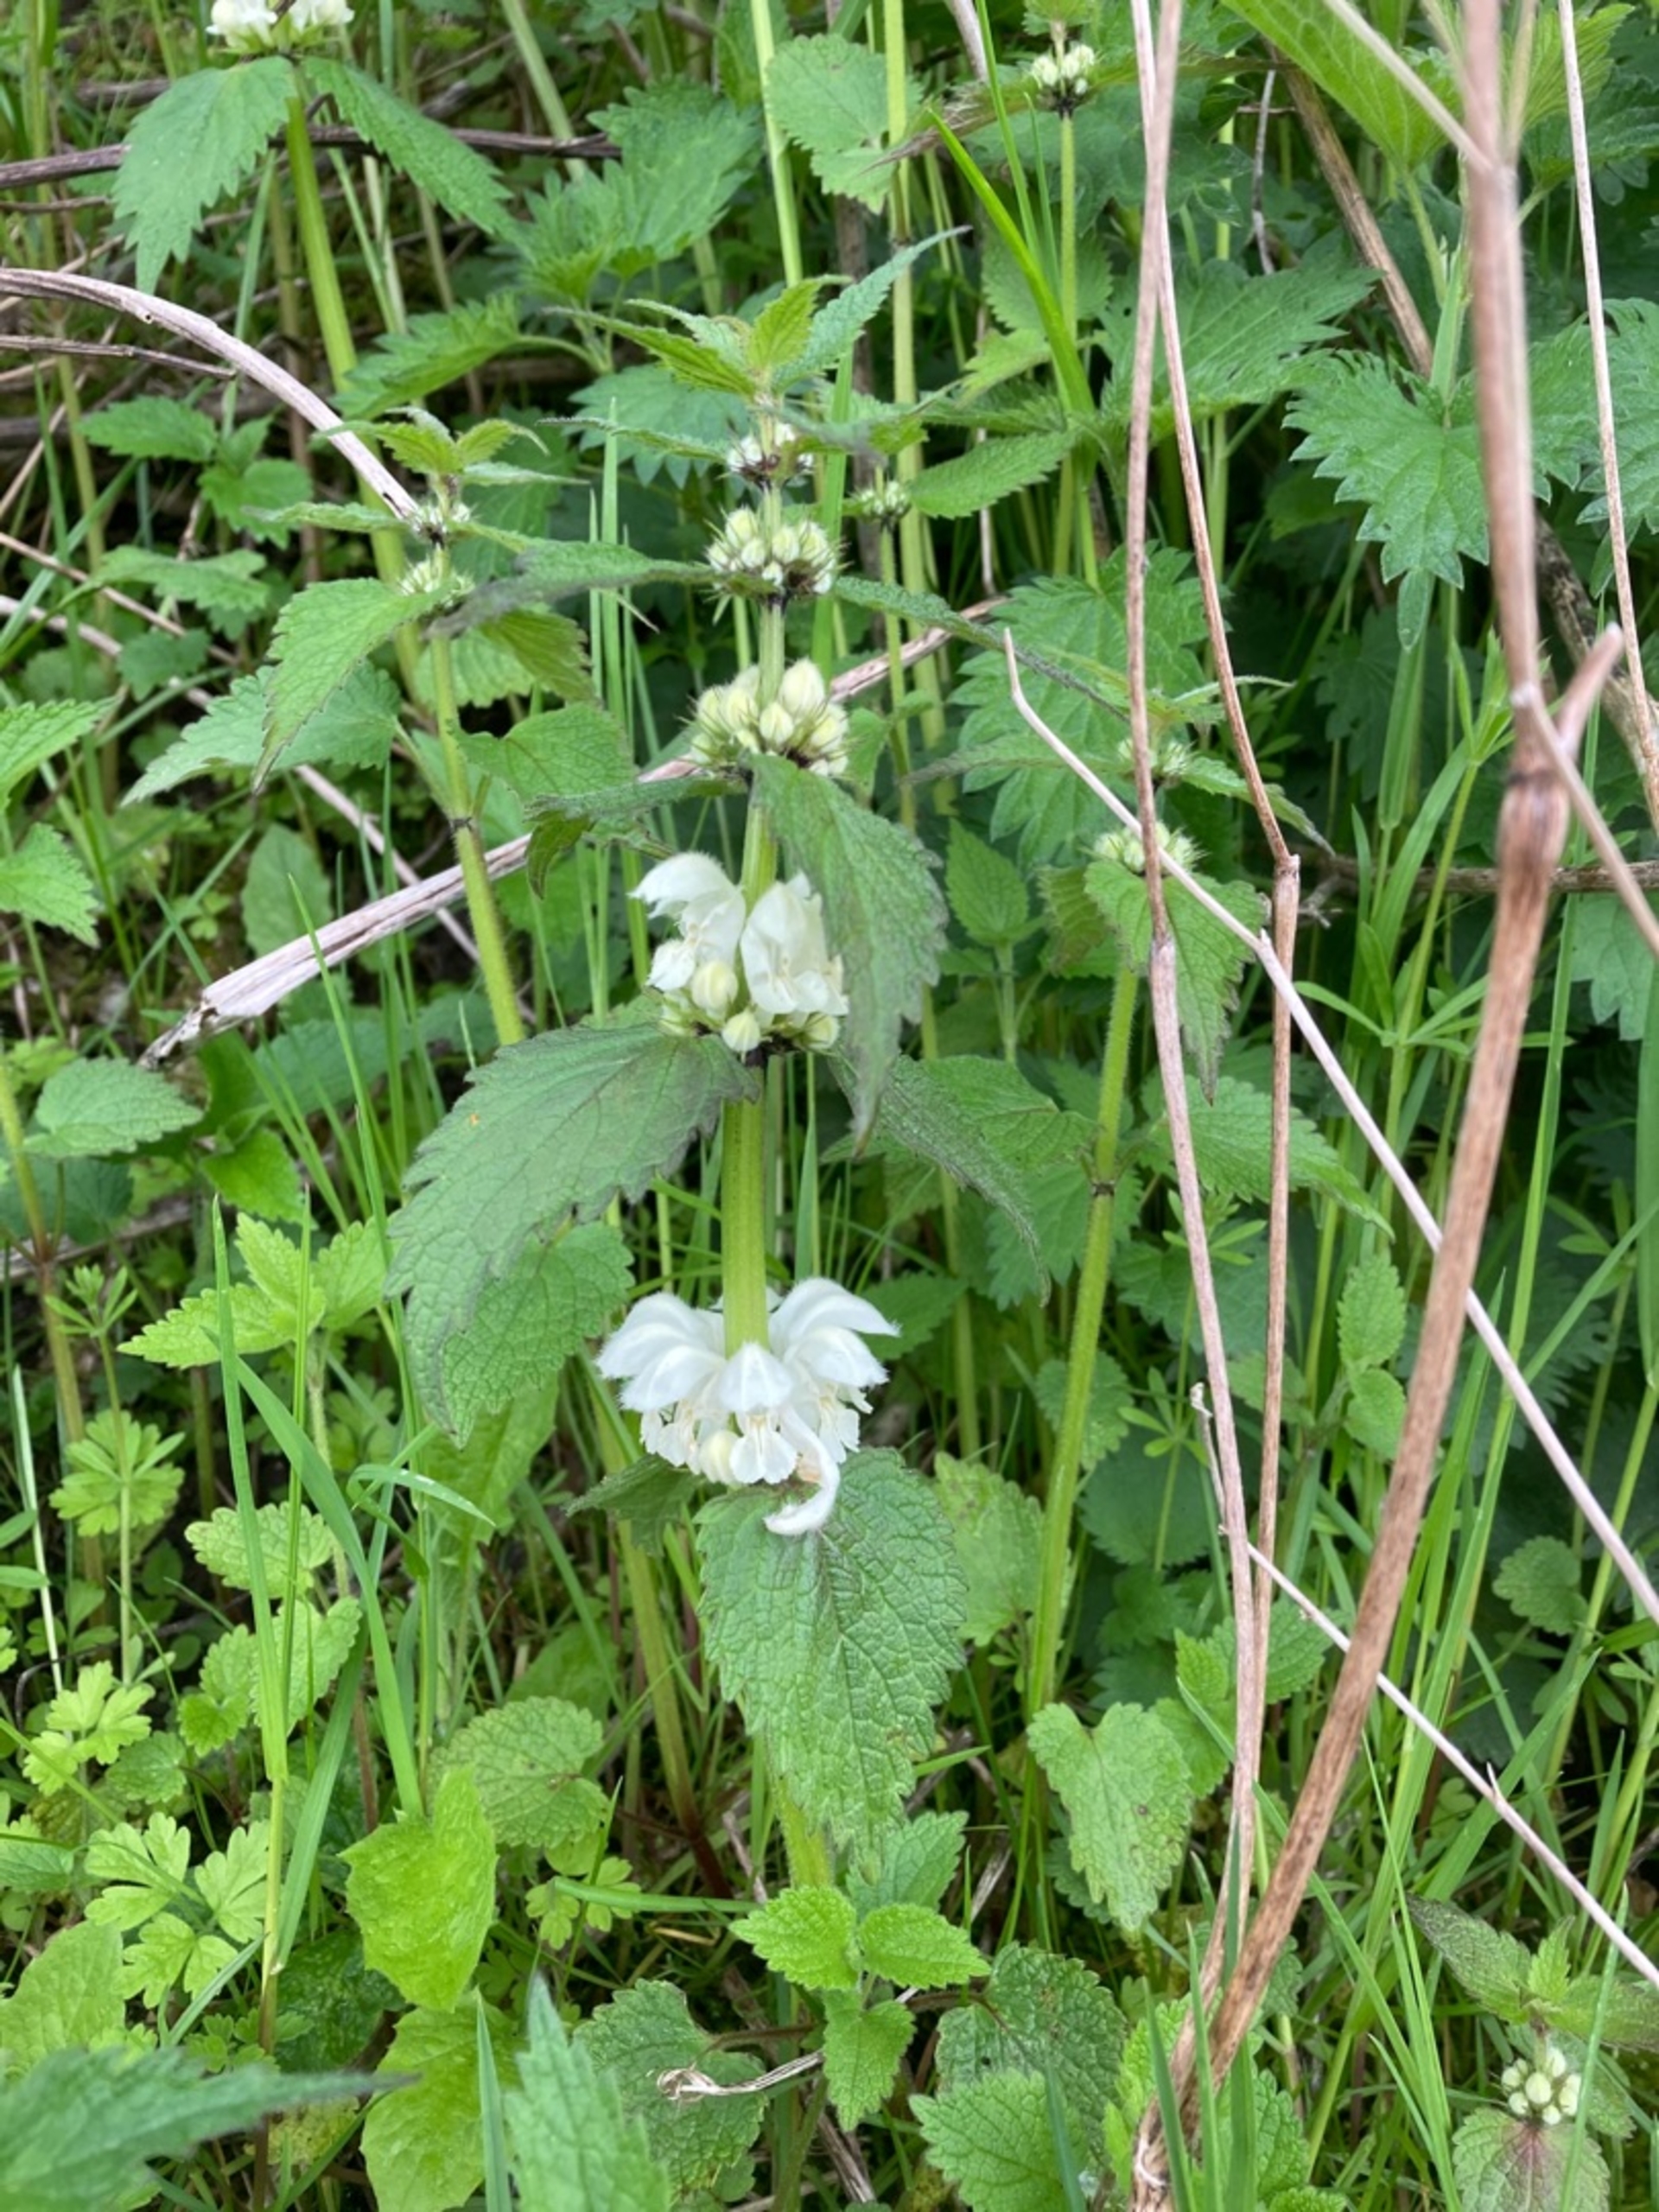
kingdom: Plantae
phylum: Tracheophyta
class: Magnoliopsida
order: Lamiales
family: Lamiaceae
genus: Lamium
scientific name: Lamium album
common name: Døvnælde
